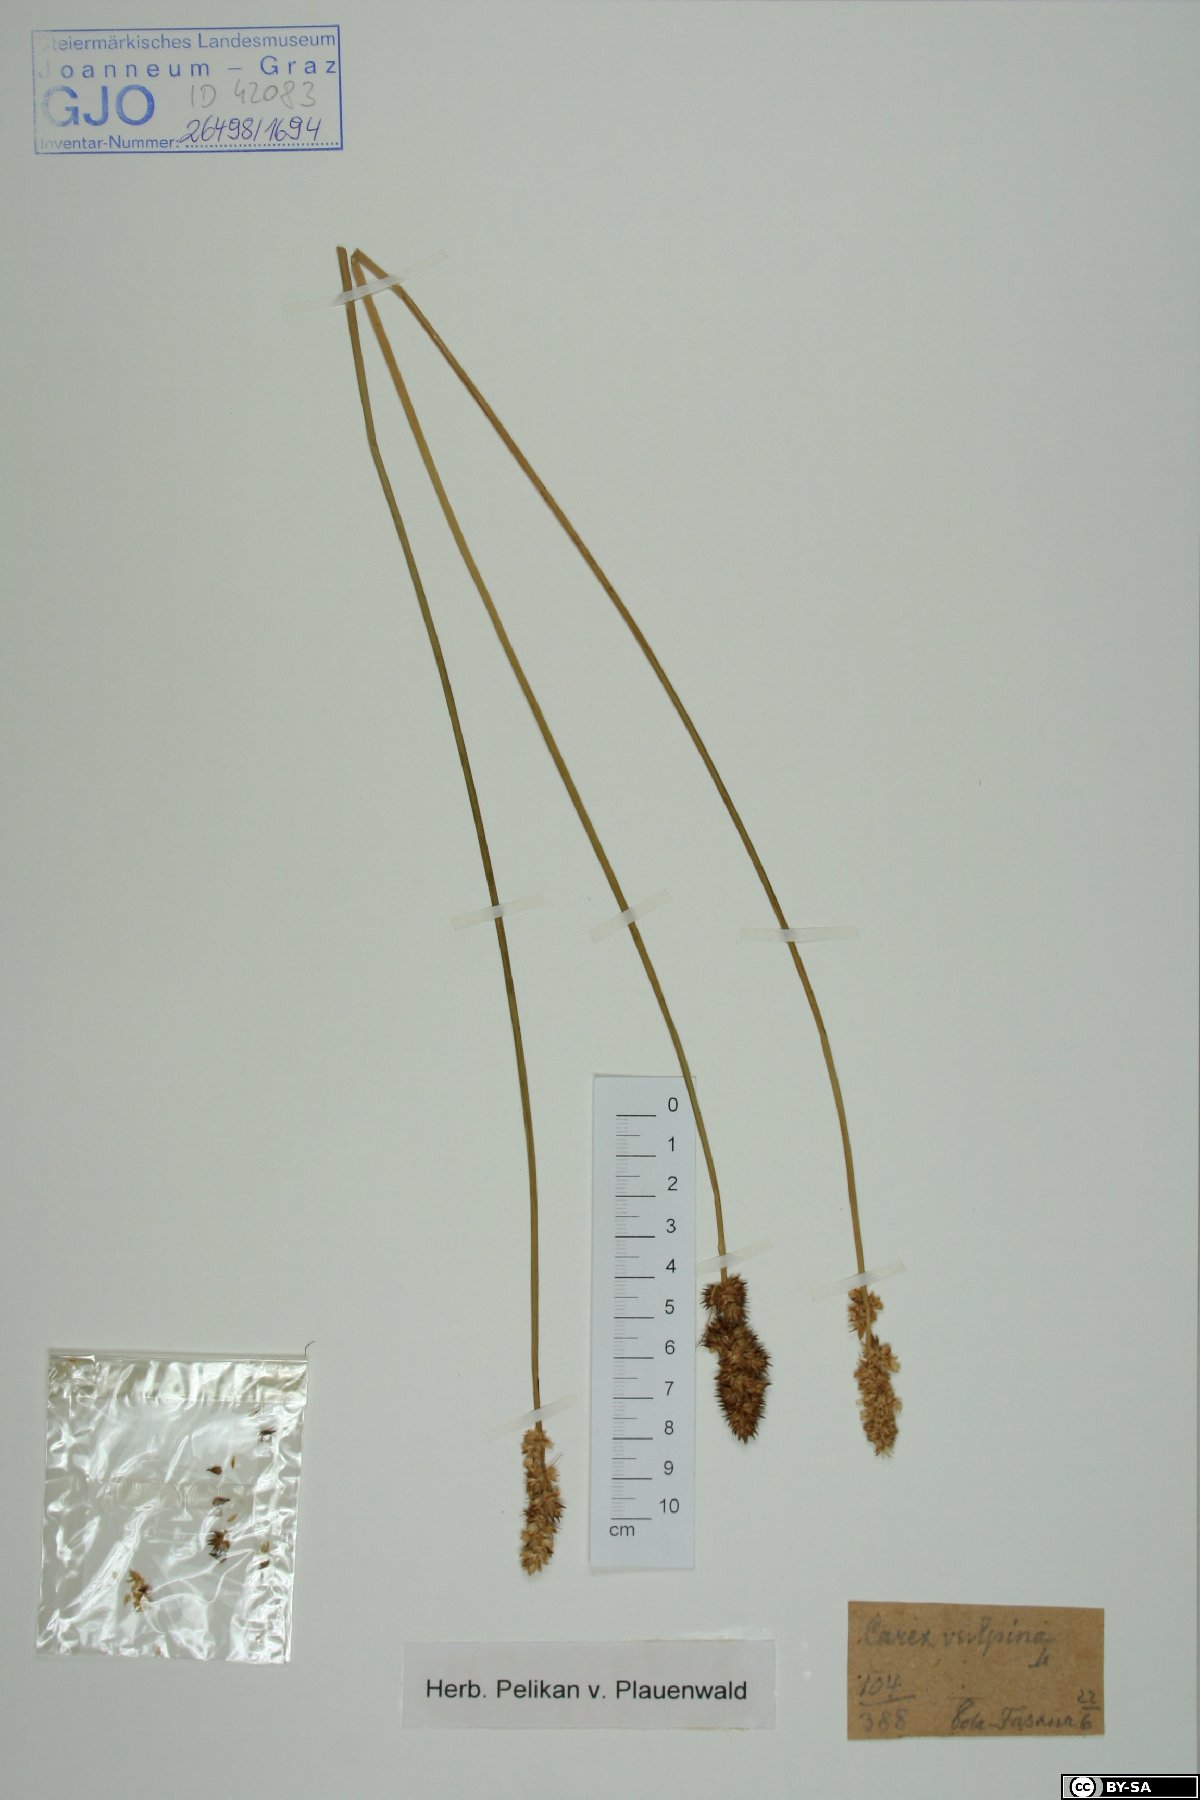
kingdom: Plantae
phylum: Tracheophyta
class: Liliopsida
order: Poales
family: Cyperaceae
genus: Carex
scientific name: Carex vulpina
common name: True fox-sedge
